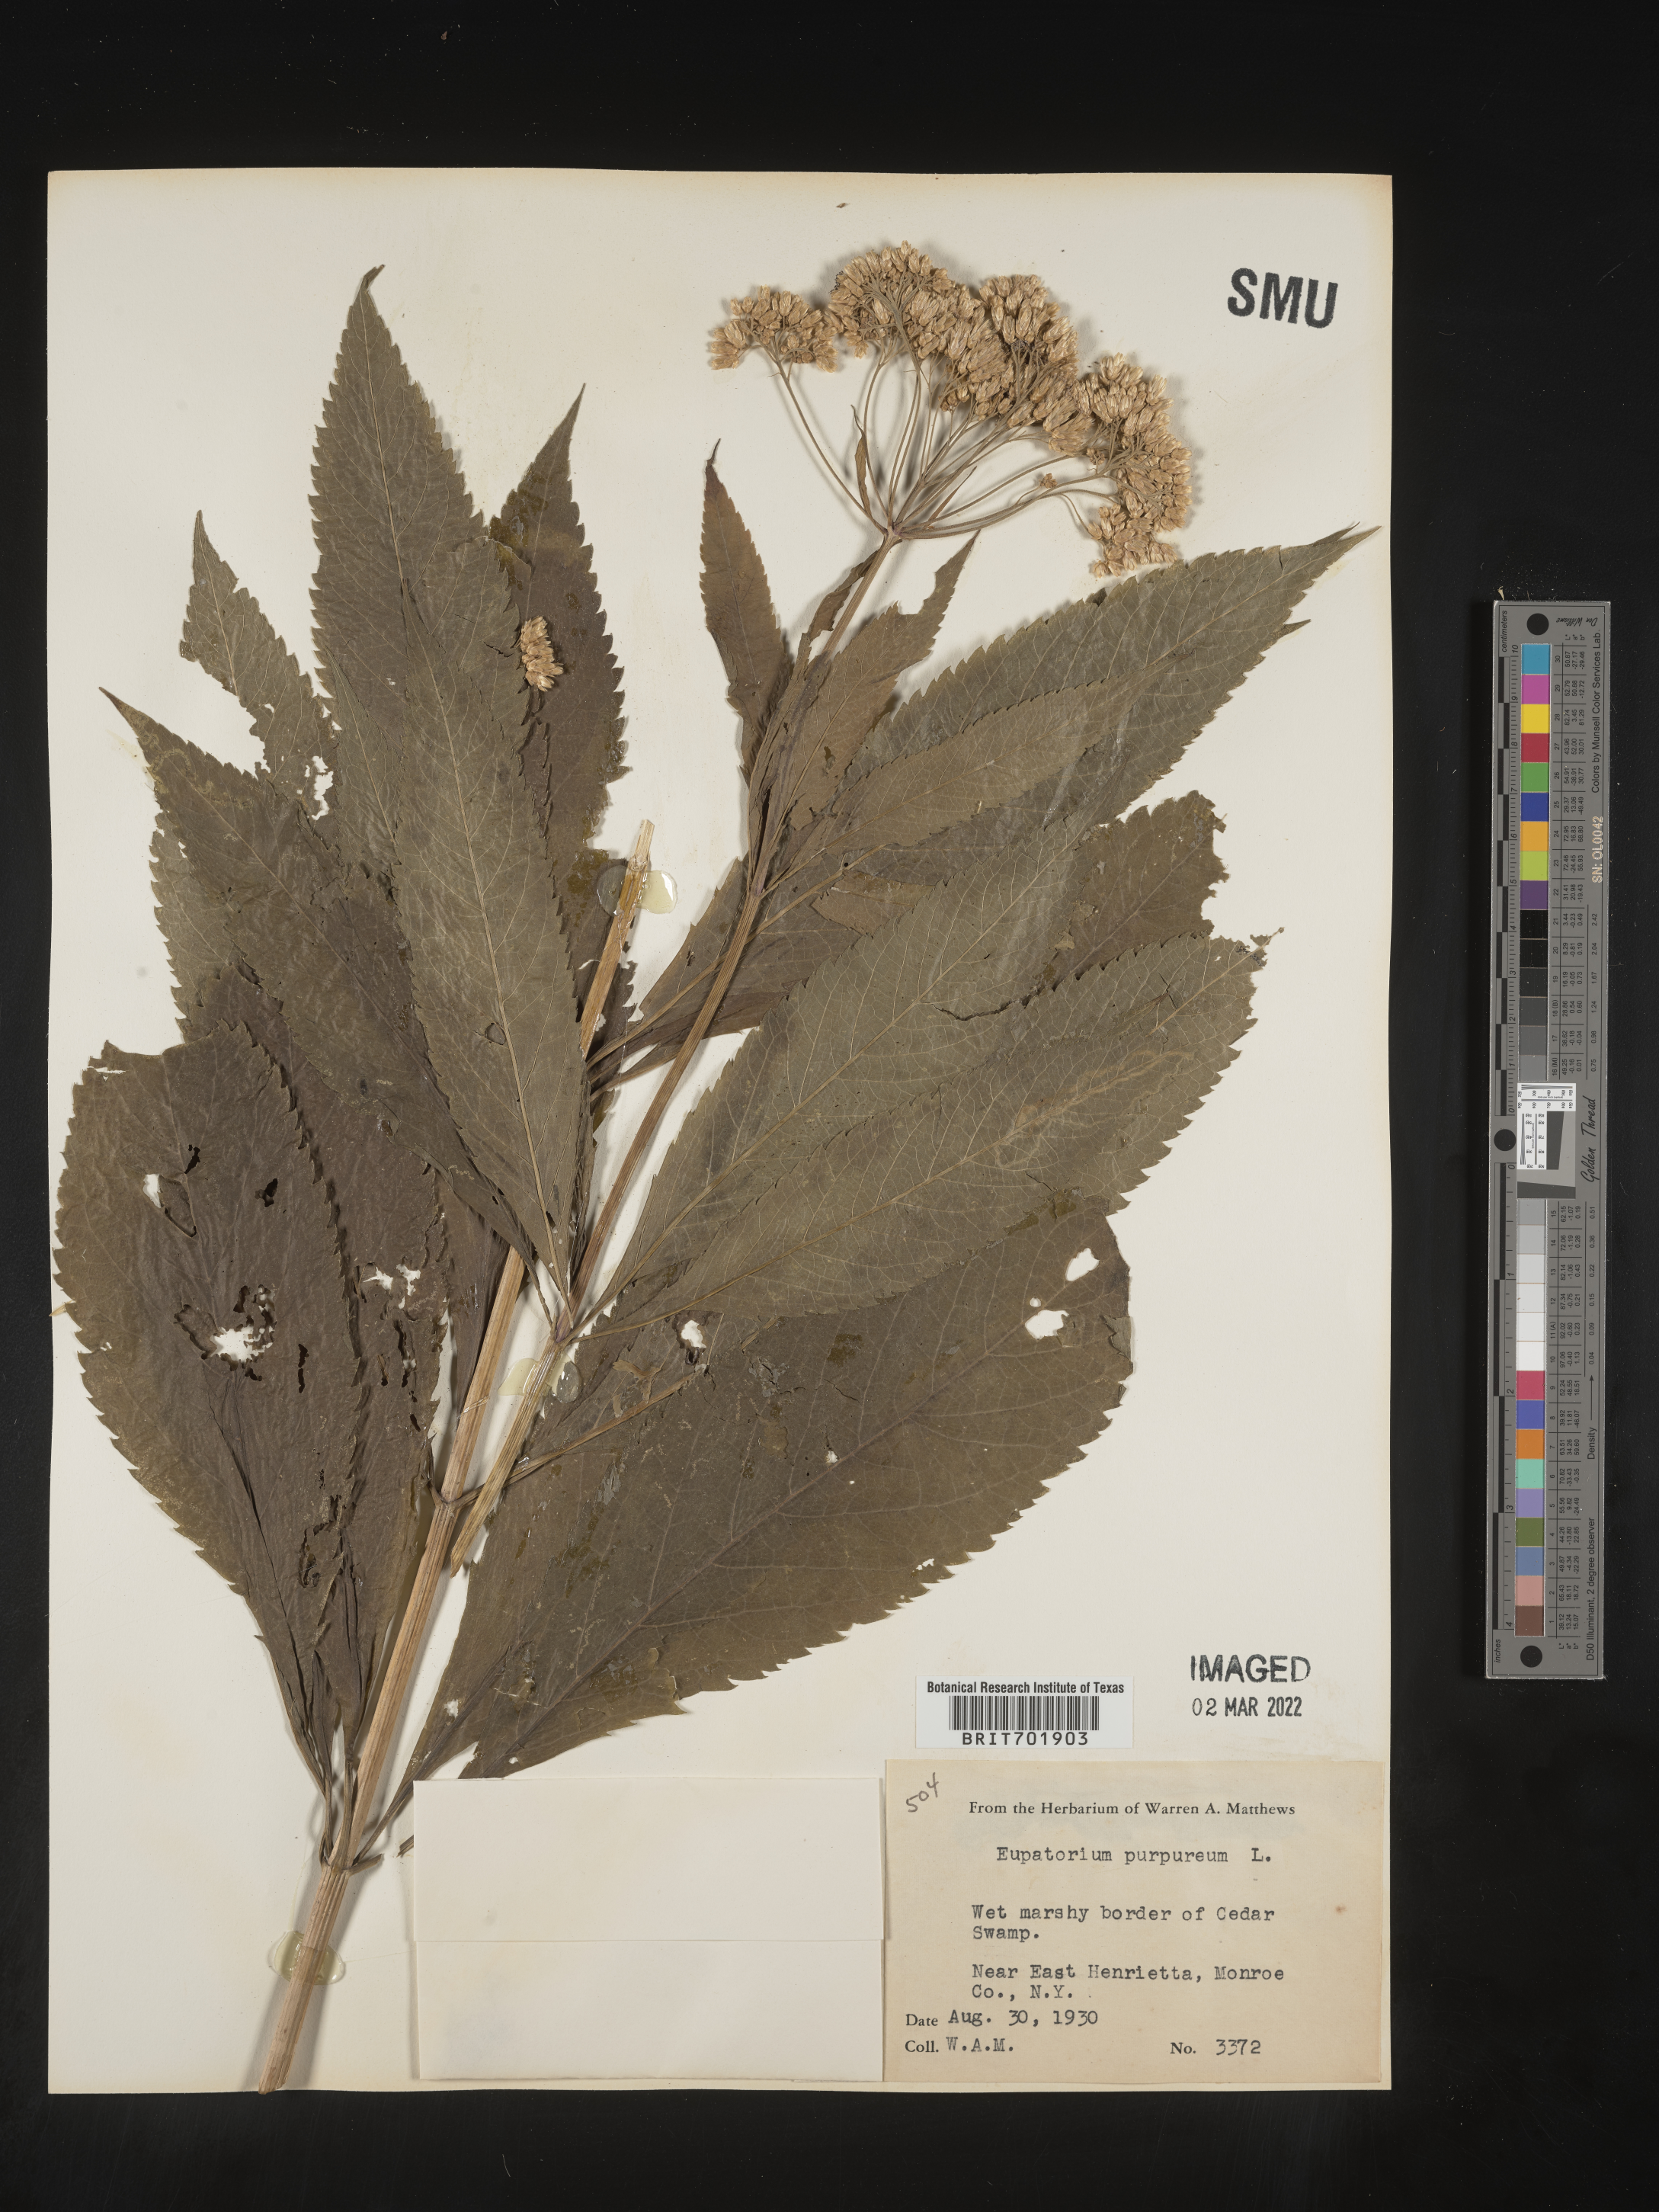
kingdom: Plantae
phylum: Tracheophyta
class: Magnoliopsida
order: Asterales
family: Asteraceae
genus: Eupatorium
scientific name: Eupatorium quaternum
